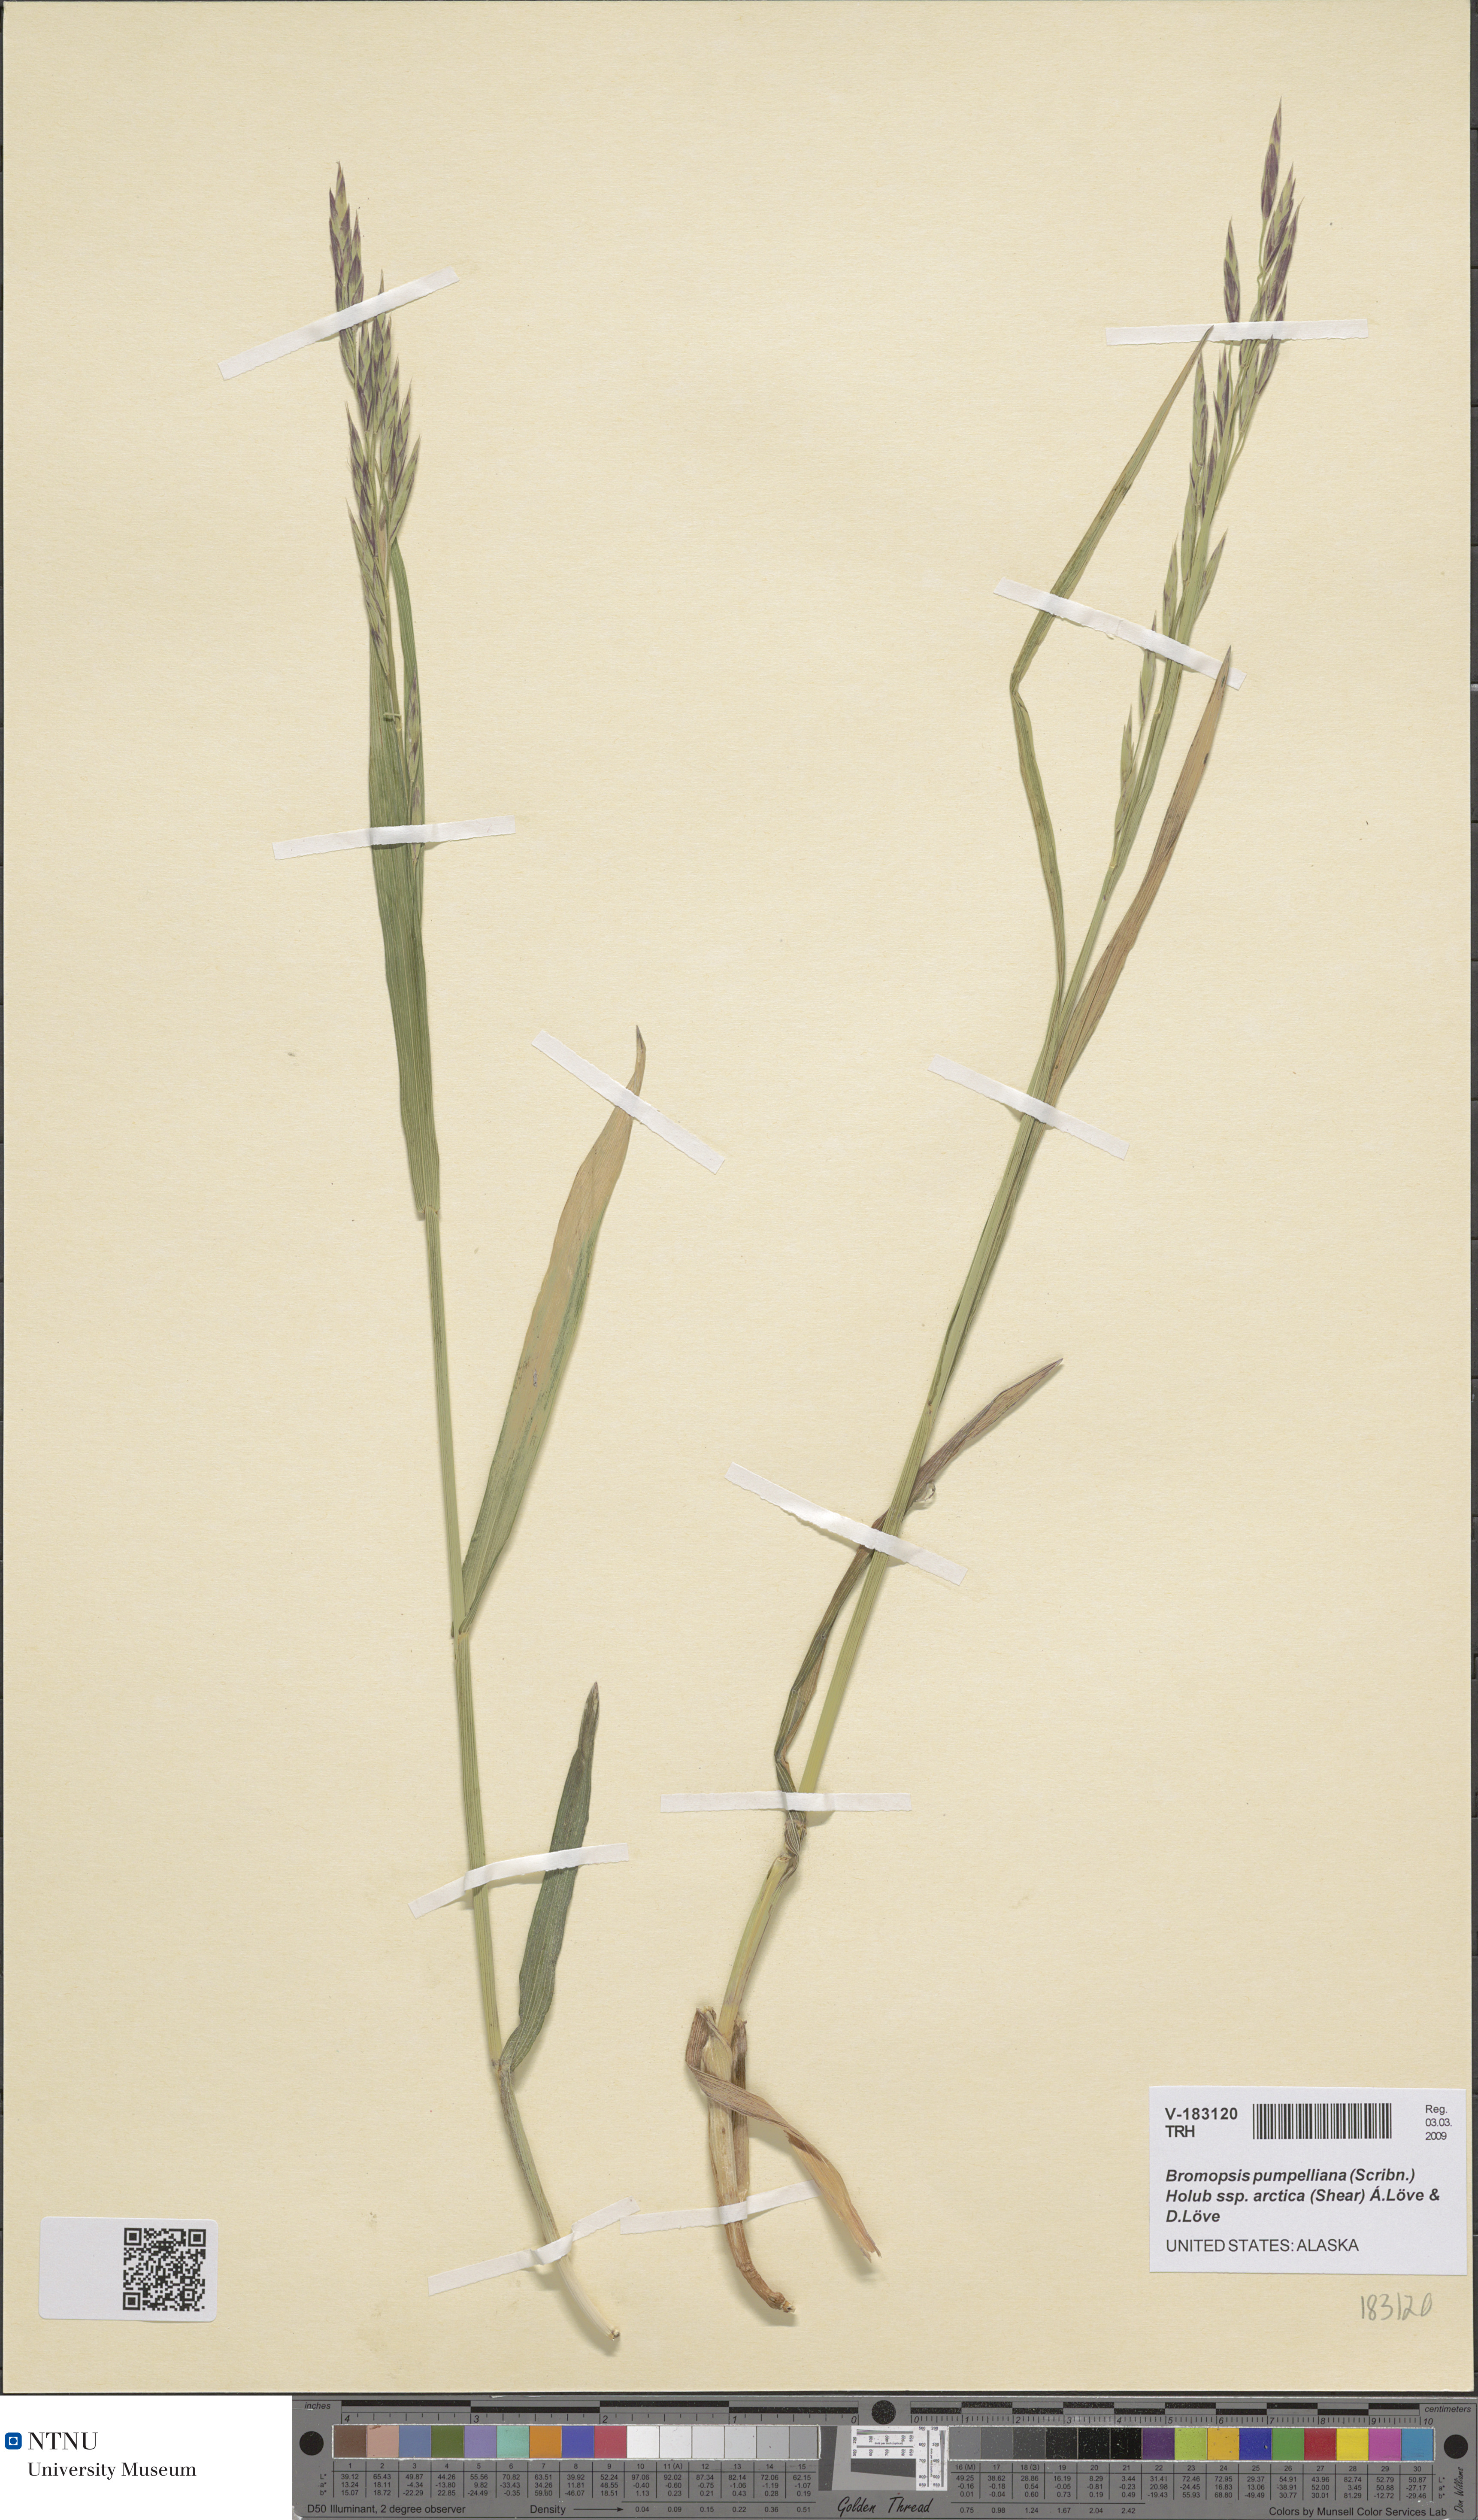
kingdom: Plantae
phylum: Tracheophyta
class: Liliopsida
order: Poales
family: Poaceae
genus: Bromus
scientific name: Bromus pumpellianus
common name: Pumpelly's brome
